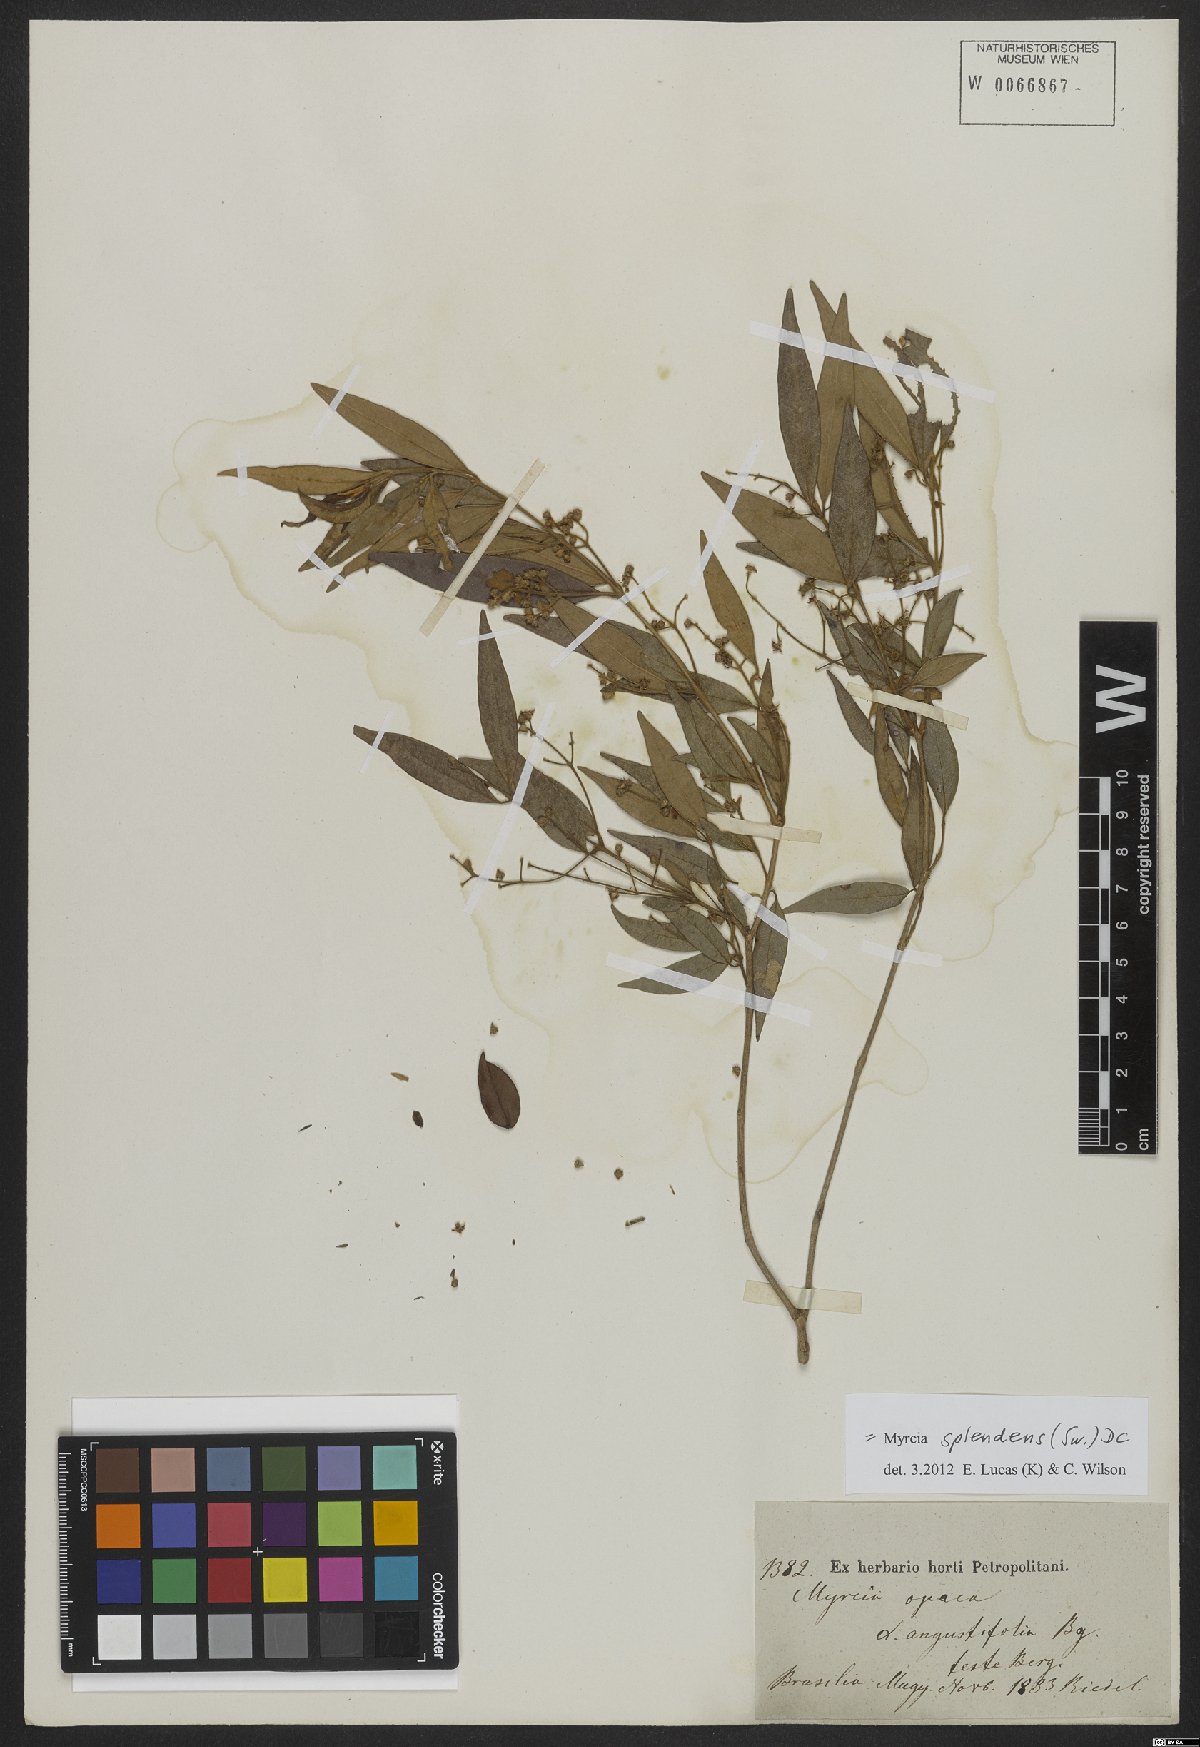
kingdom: Plantae
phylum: Tracheophyta
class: Magnoliopsida
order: Myrtales
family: Myrtaceae
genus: Myrcia
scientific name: Myrcia splendens
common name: Surinam cherry
